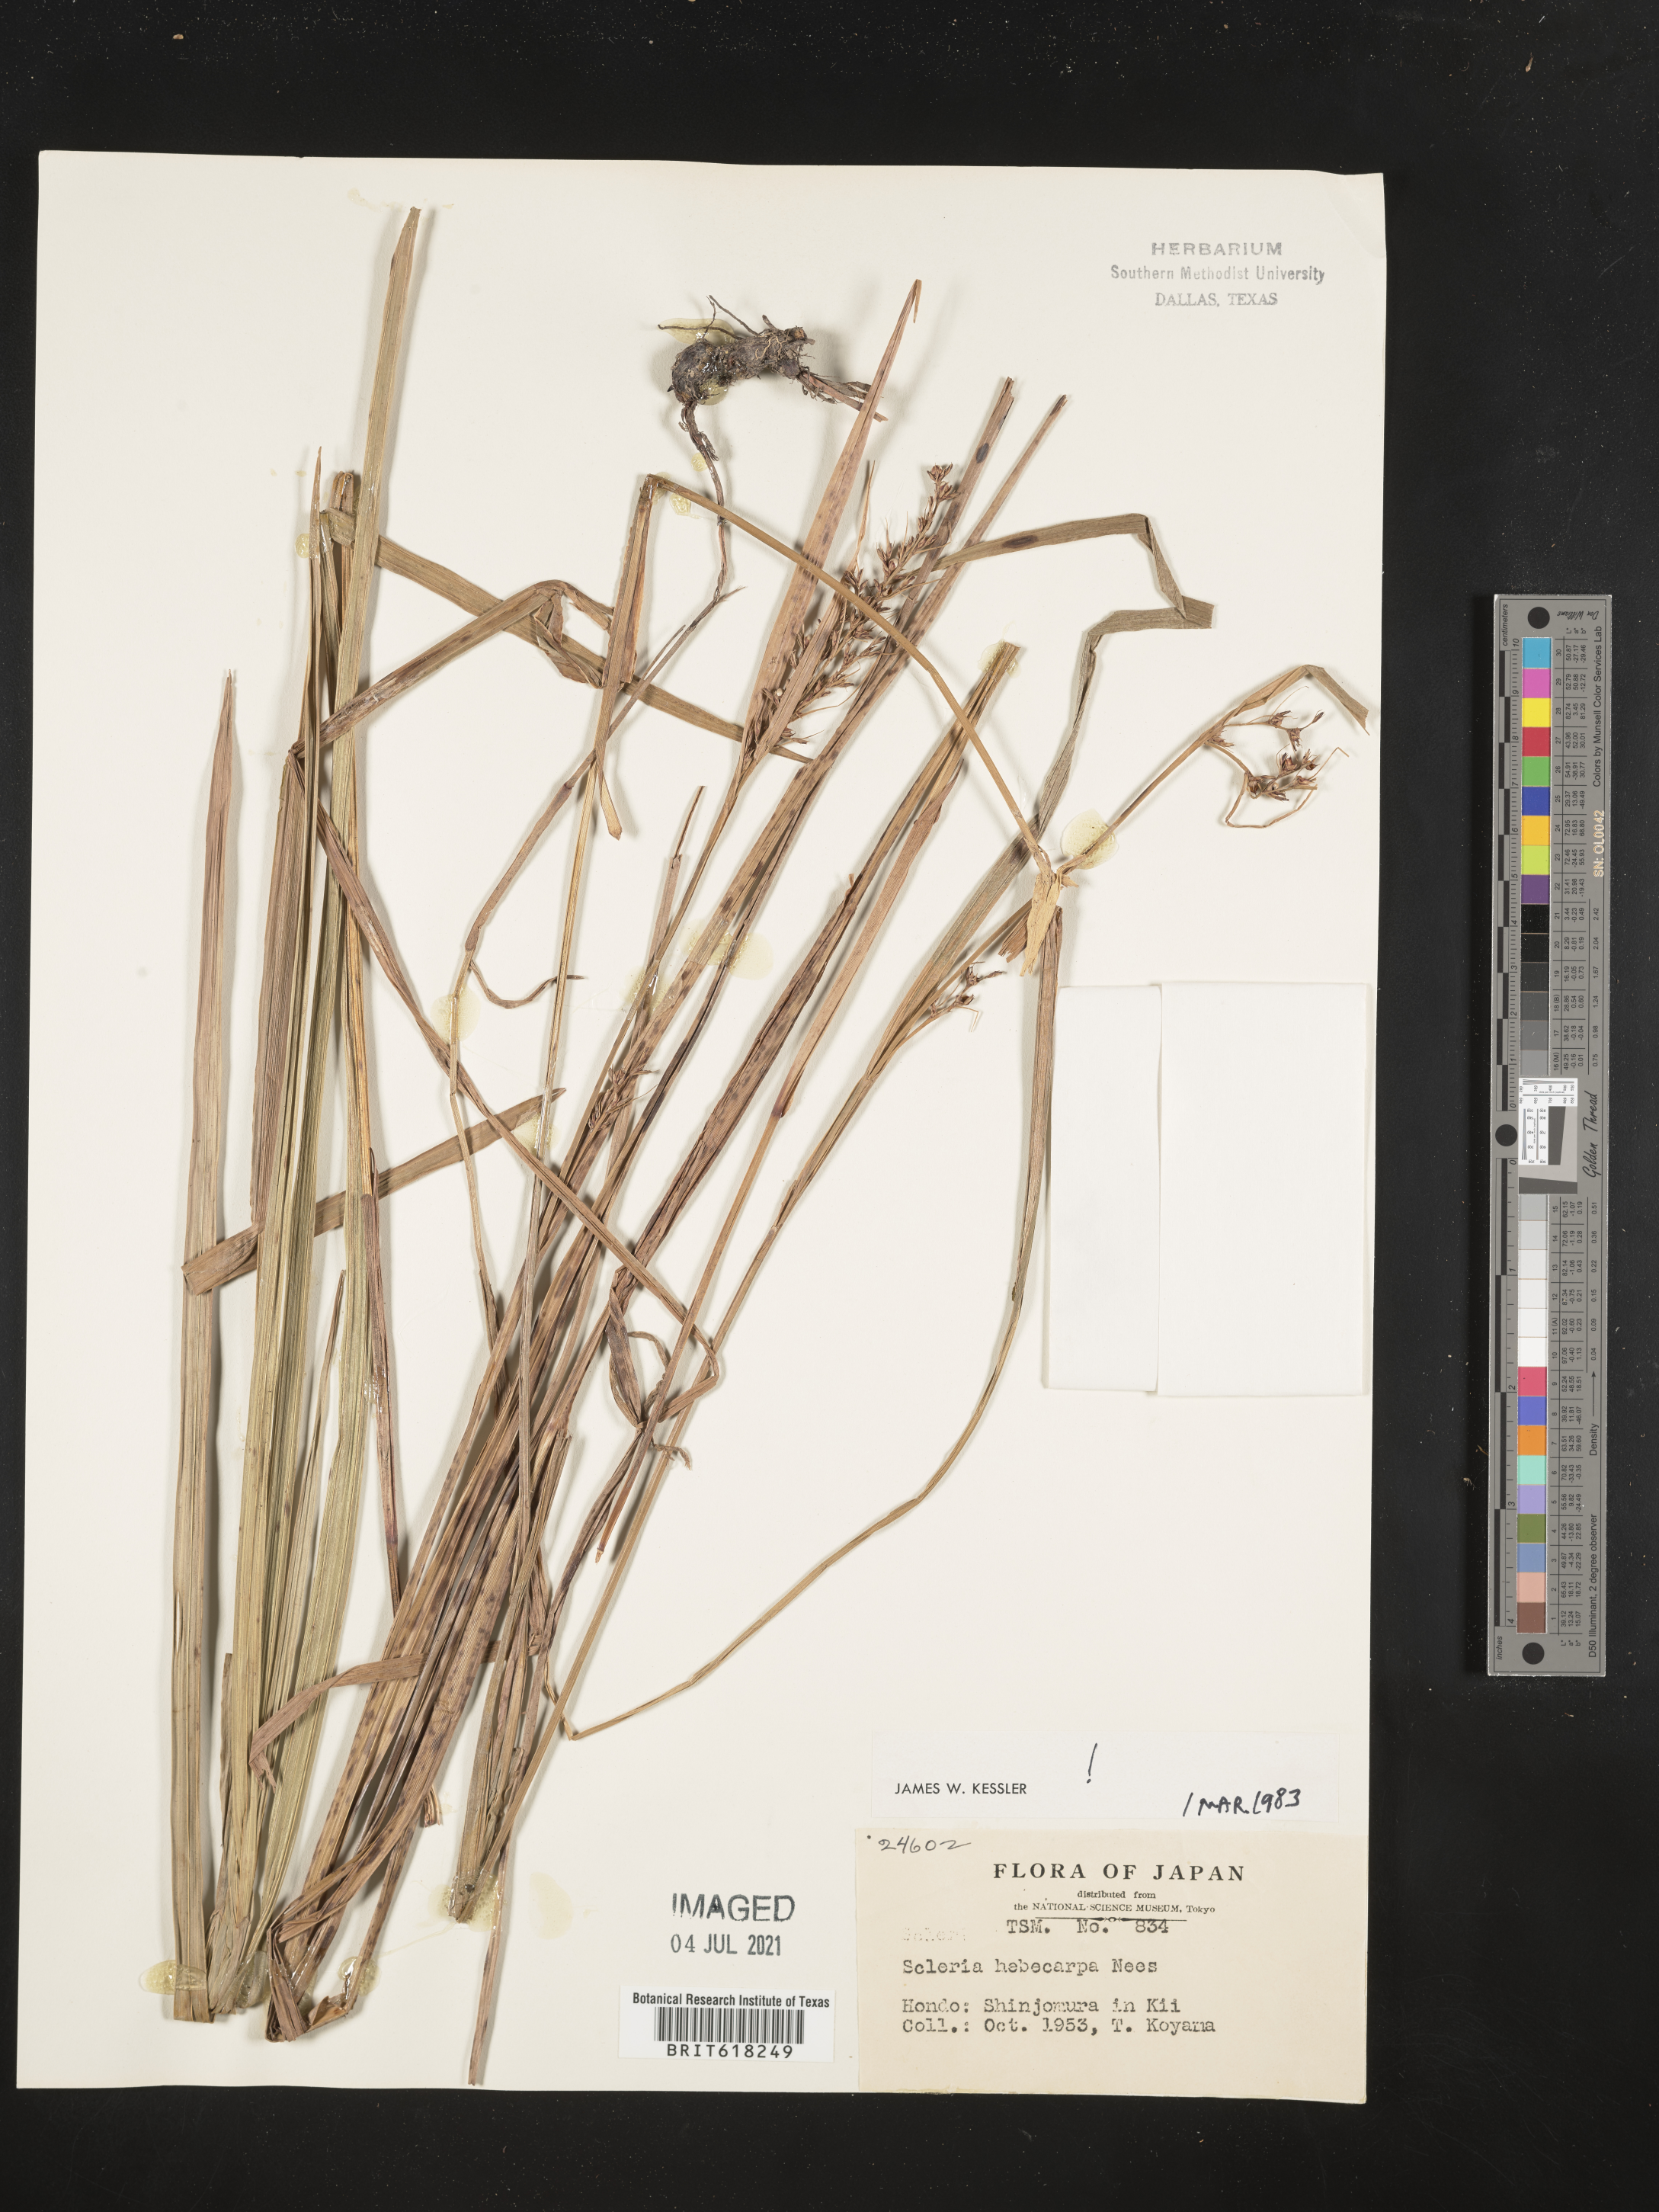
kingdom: Plantae
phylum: Tracheophyta
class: Liliopsida
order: Poales
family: Cyperaceae
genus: Scleria
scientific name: Scleria levis
